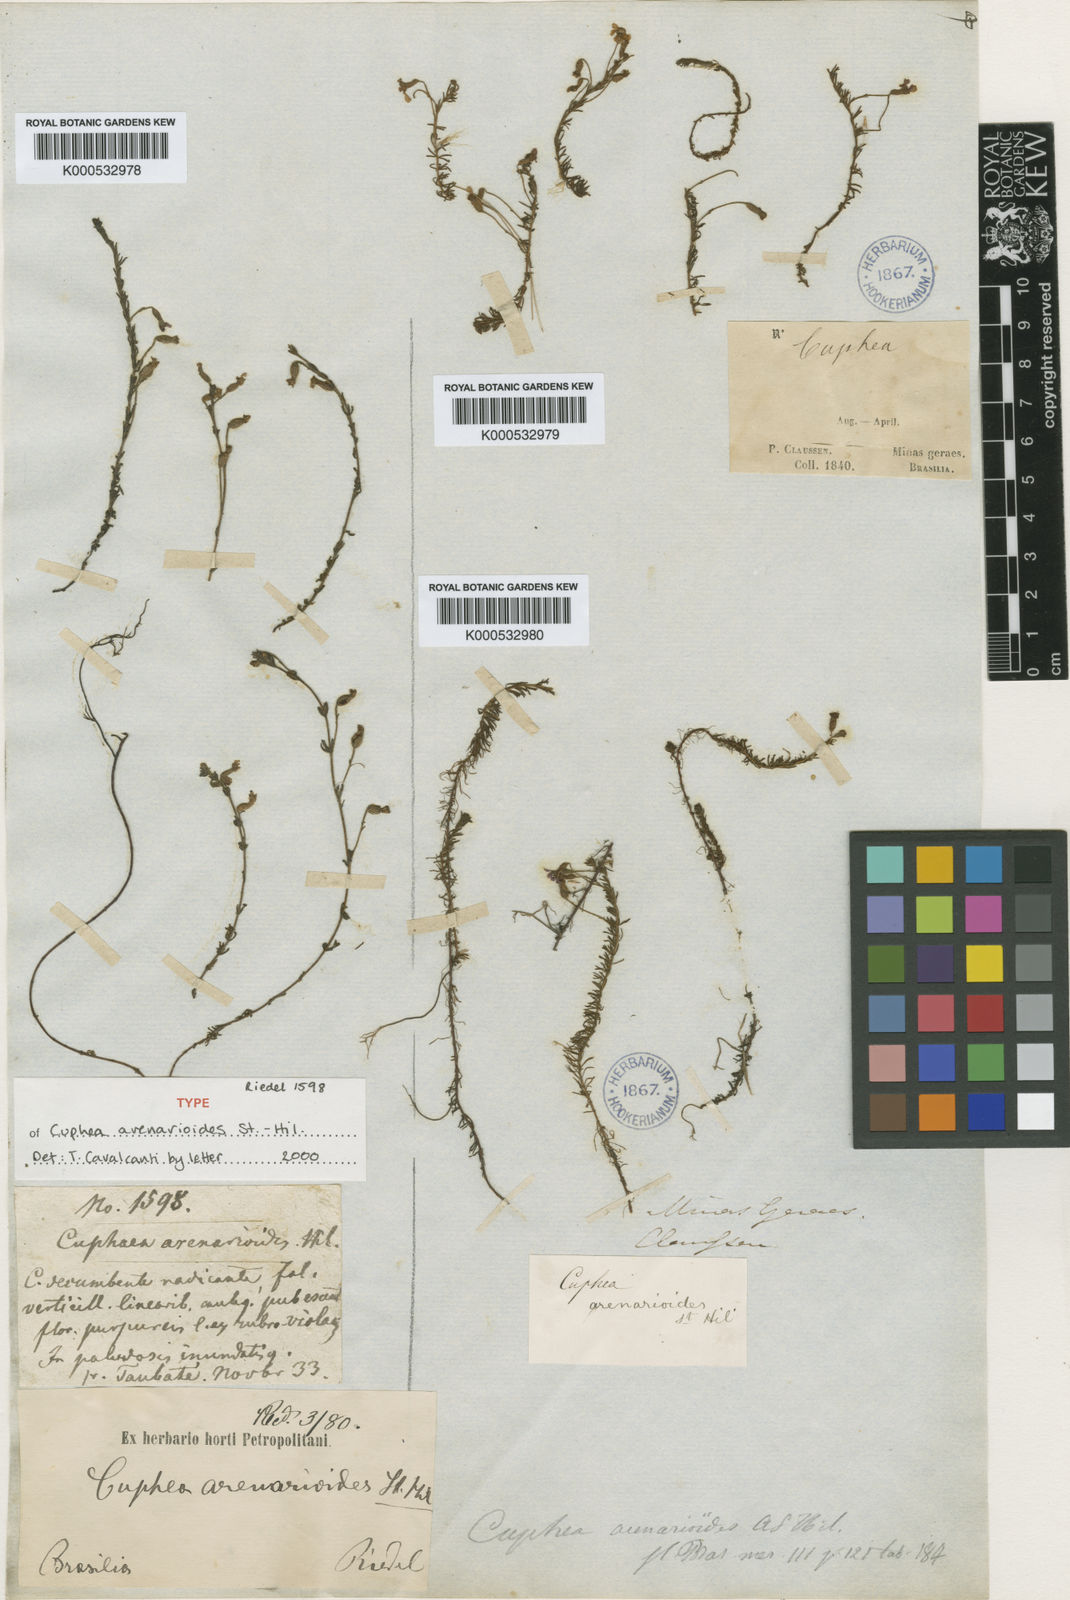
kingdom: Plantae
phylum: Tracheophyta
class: Magnoliopsida
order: Myrtales
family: Lythraceae
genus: Cuphea
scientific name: Cuphea arenarioides
